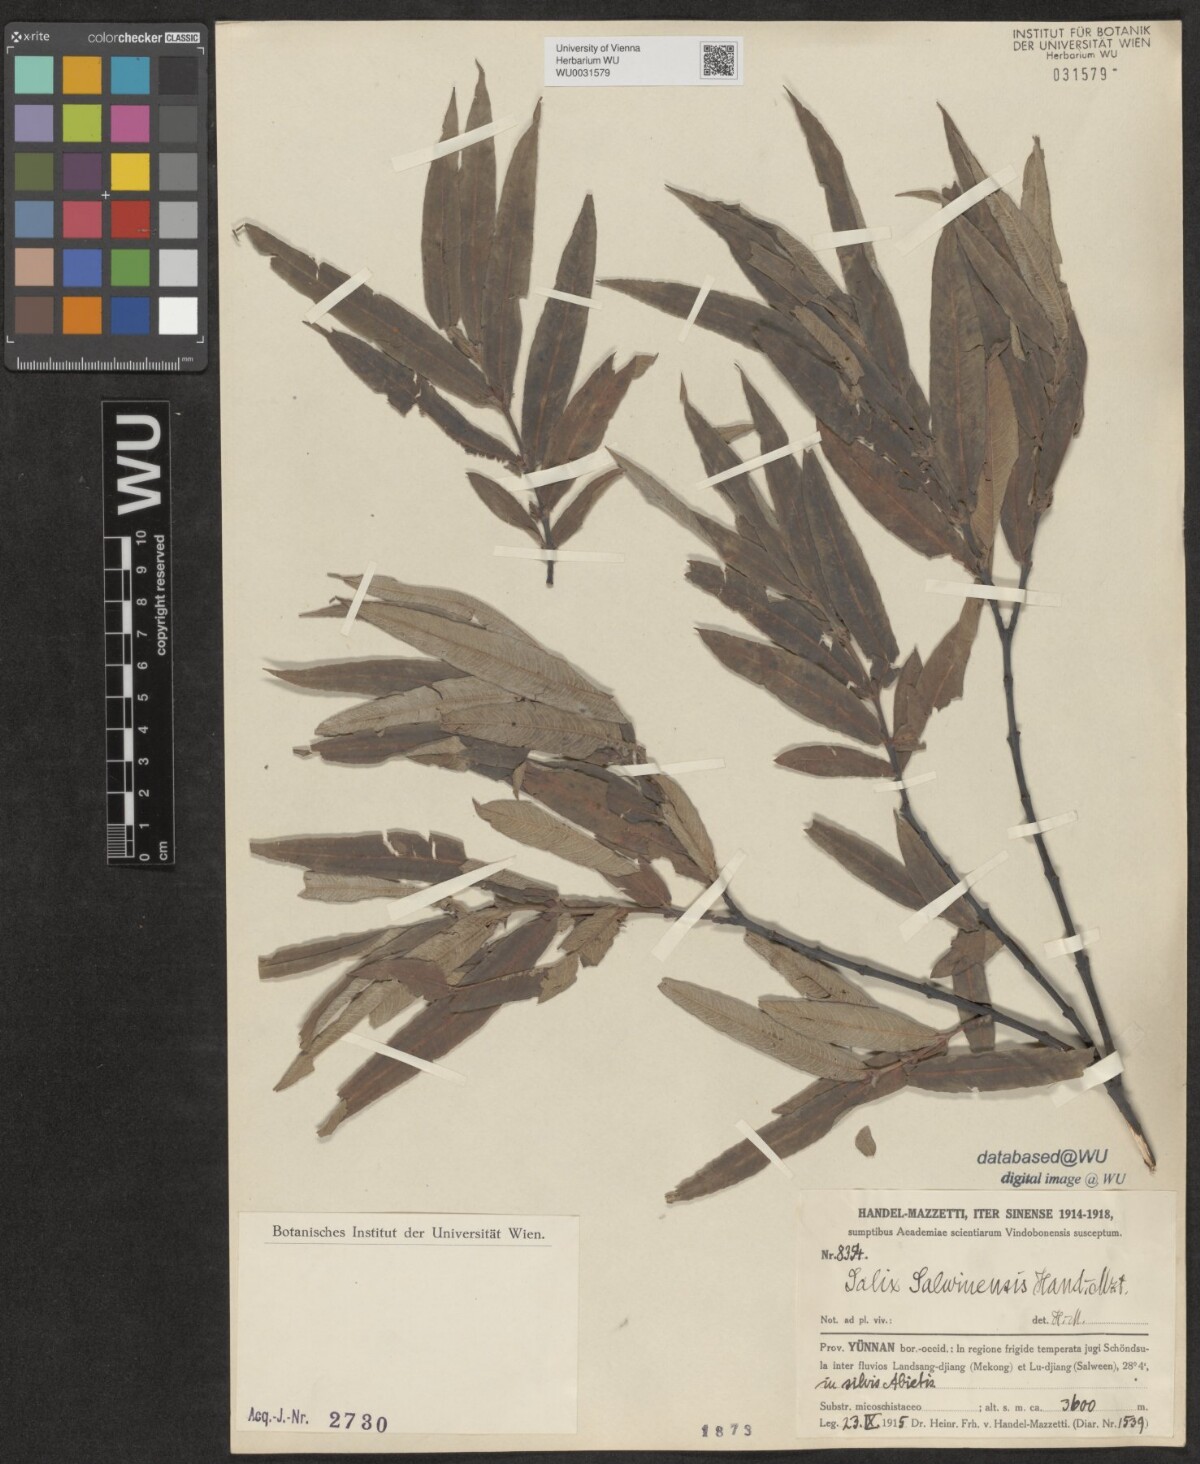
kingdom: Plantae
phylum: Tracheophyta
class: Magnoliopsida
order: Malpighiales
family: Salicaceae
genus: Salix
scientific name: Salix salwinensis
